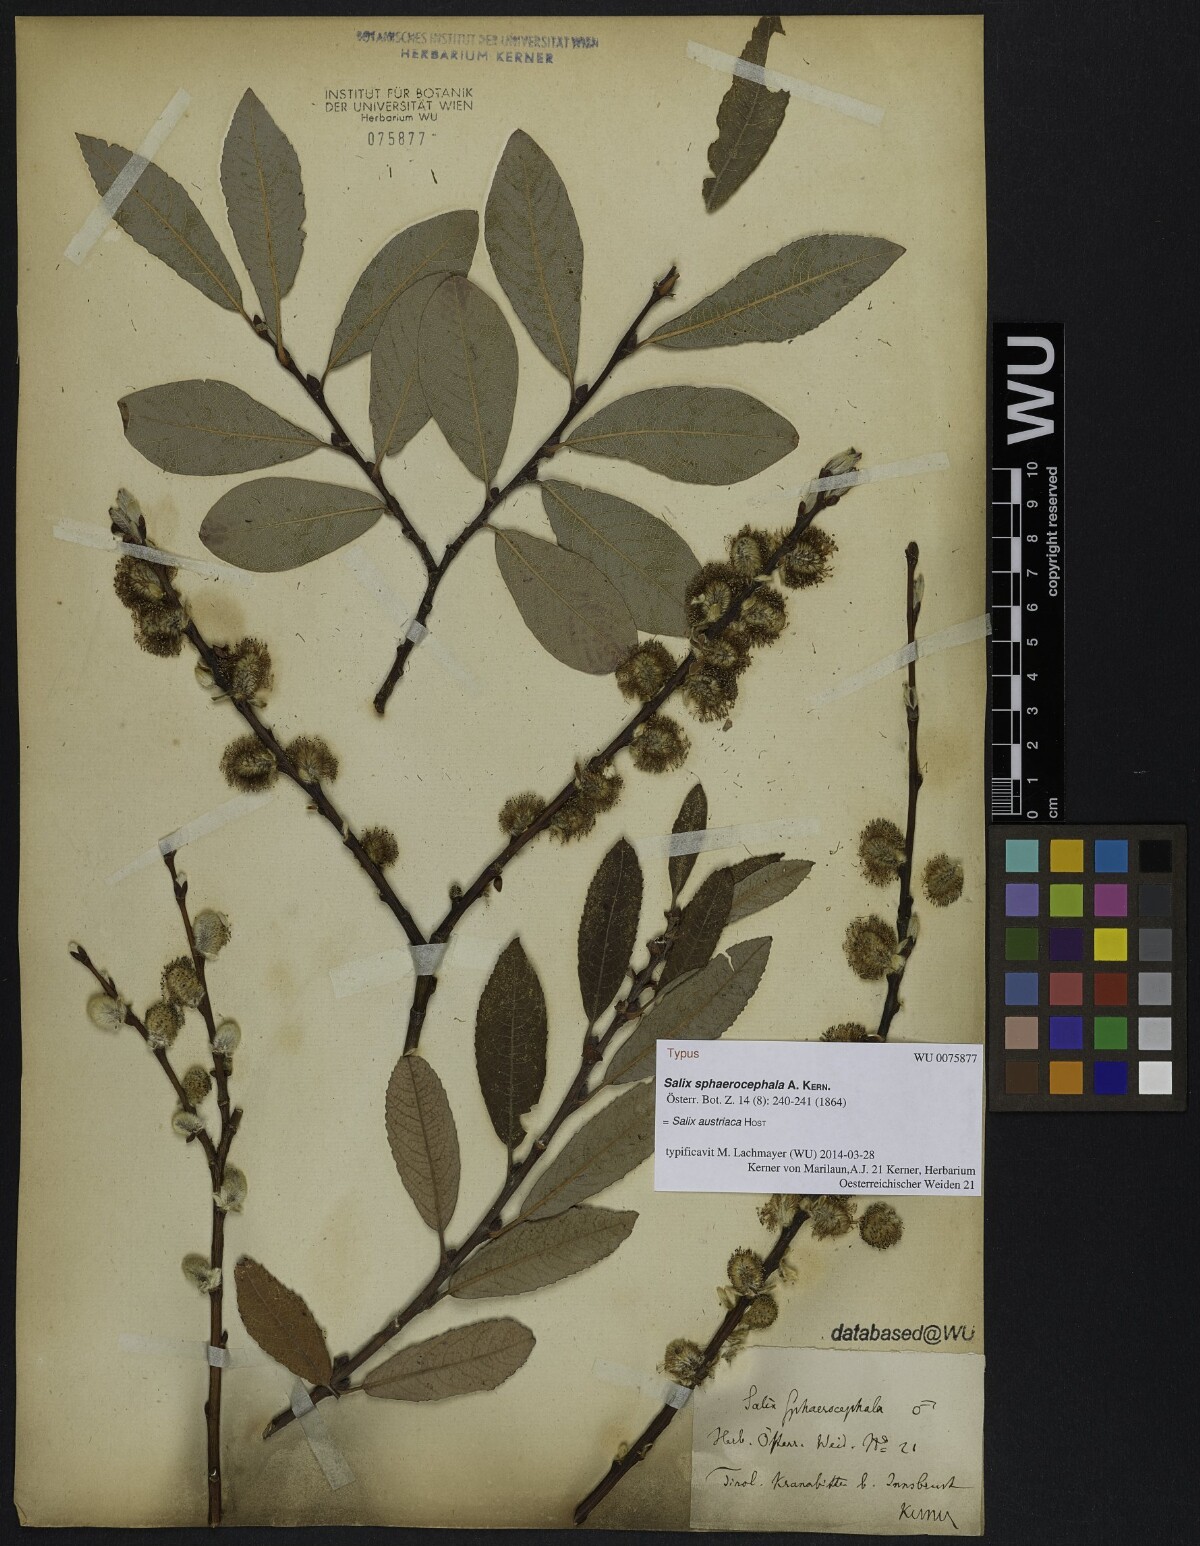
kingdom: Plantae
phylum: Tracheophyta
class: Magnoliopsida
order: Malpighiales
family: Salicaceae
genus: Salix
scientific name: Salix purpurea
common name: Purple willow
